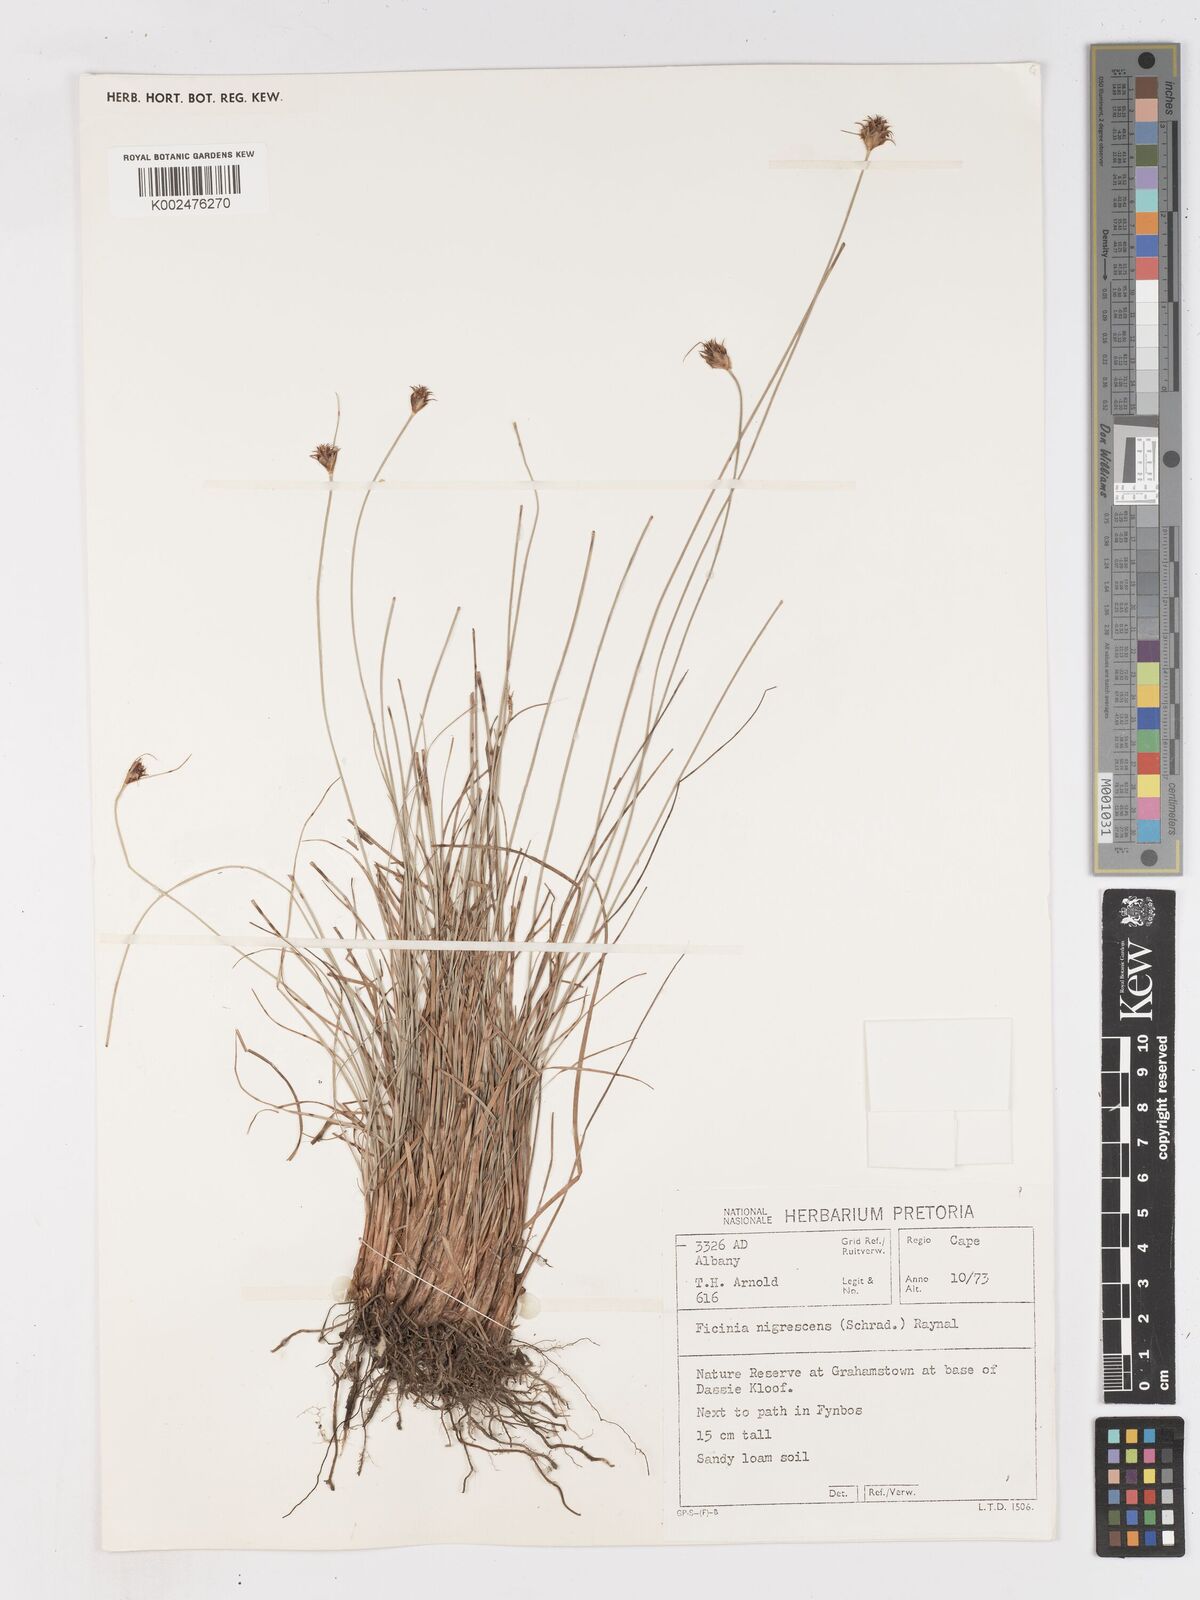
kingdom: Plantae
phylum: Tracheophyta
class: Liliopsida
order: Poales
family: Cyperaceae
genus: Ficinia
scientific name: Ficinia nigrescens
